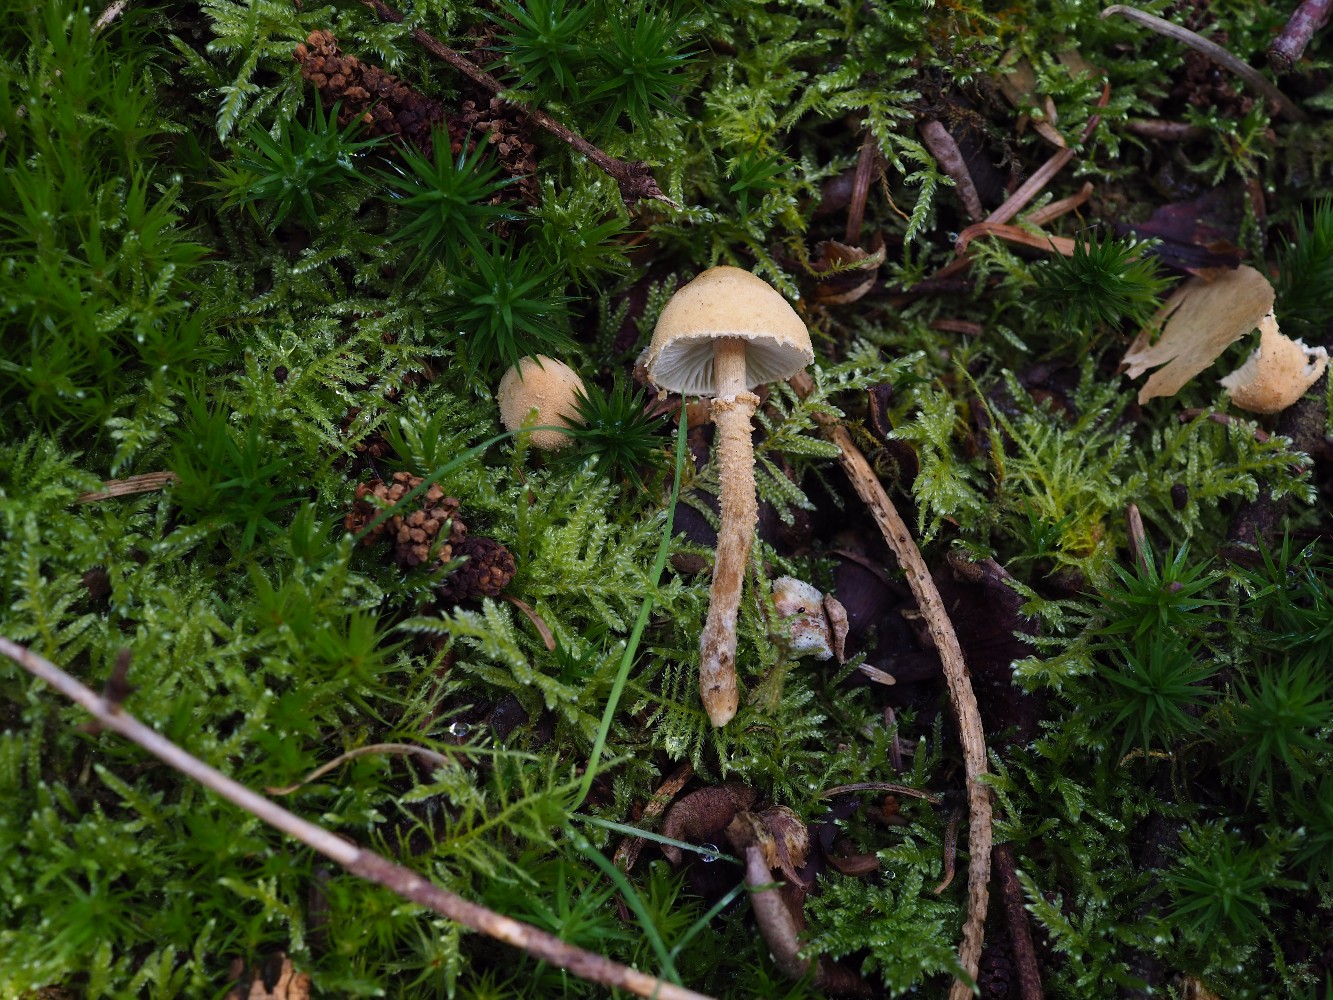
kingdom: Fungi
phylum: Basidiomycota
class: Agaricomycetes
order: Agaricales
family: Tricholomataceae
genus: Cystoderma
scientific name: Cystoderma amianthinum
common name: okkergul grynhat
